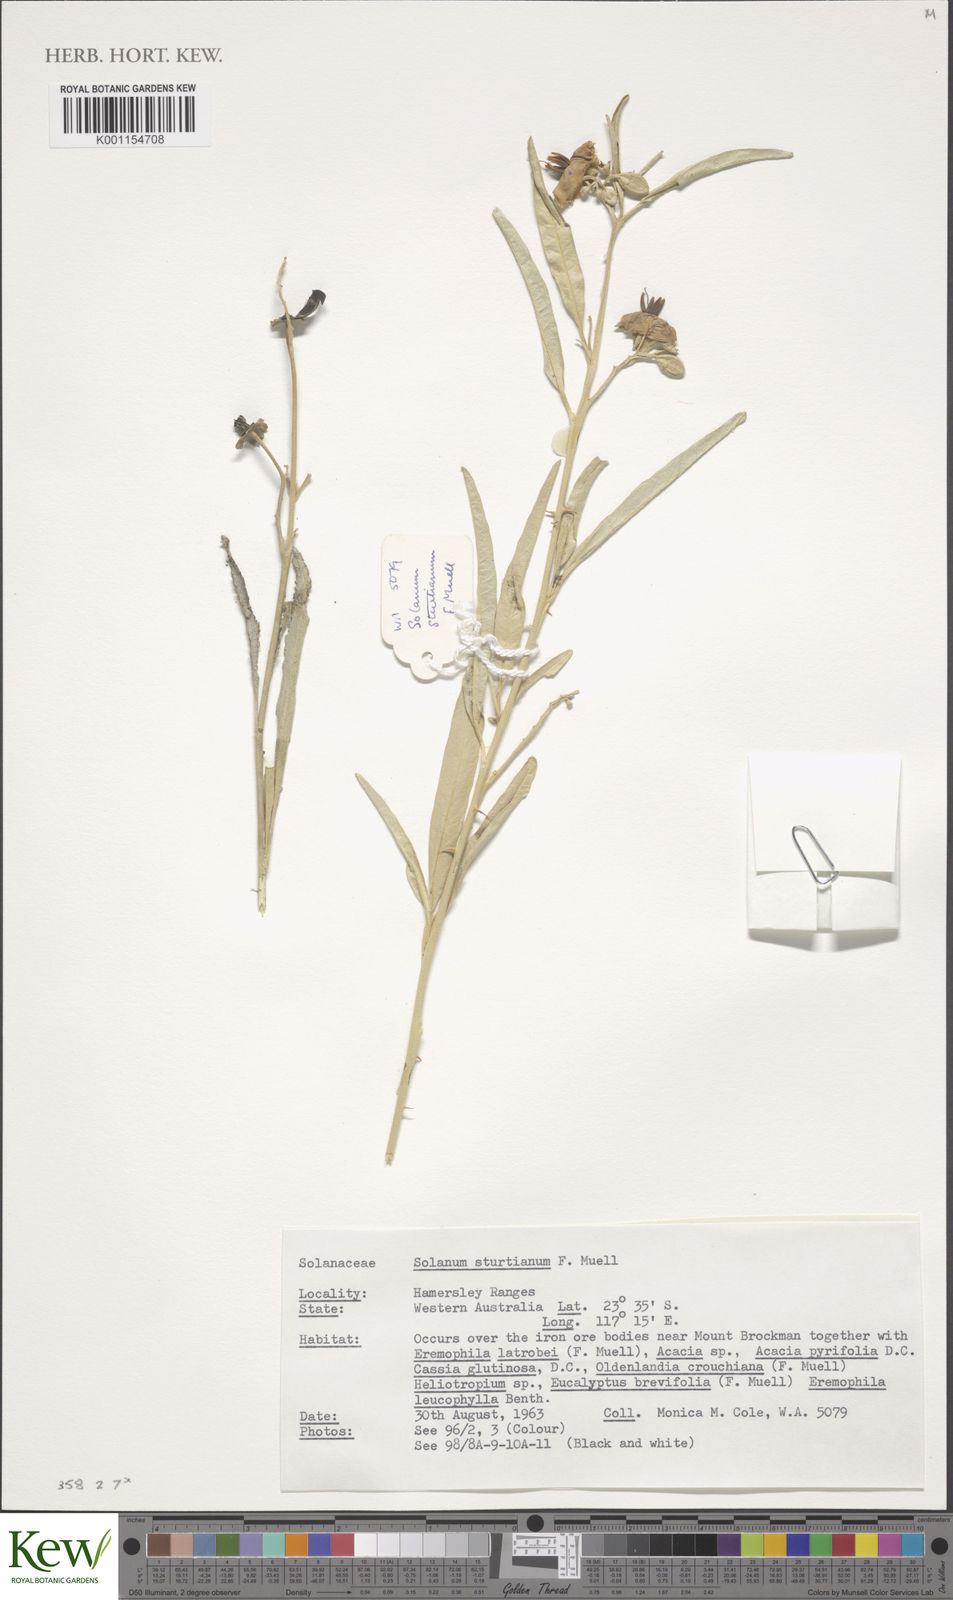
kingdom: Plantae
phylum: Tracheophyta
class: Magnoliopsida
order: Solanales
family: Solanaceae
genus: Solanum
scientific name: Solanum sturtianum
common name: Thargomindah nightshade
